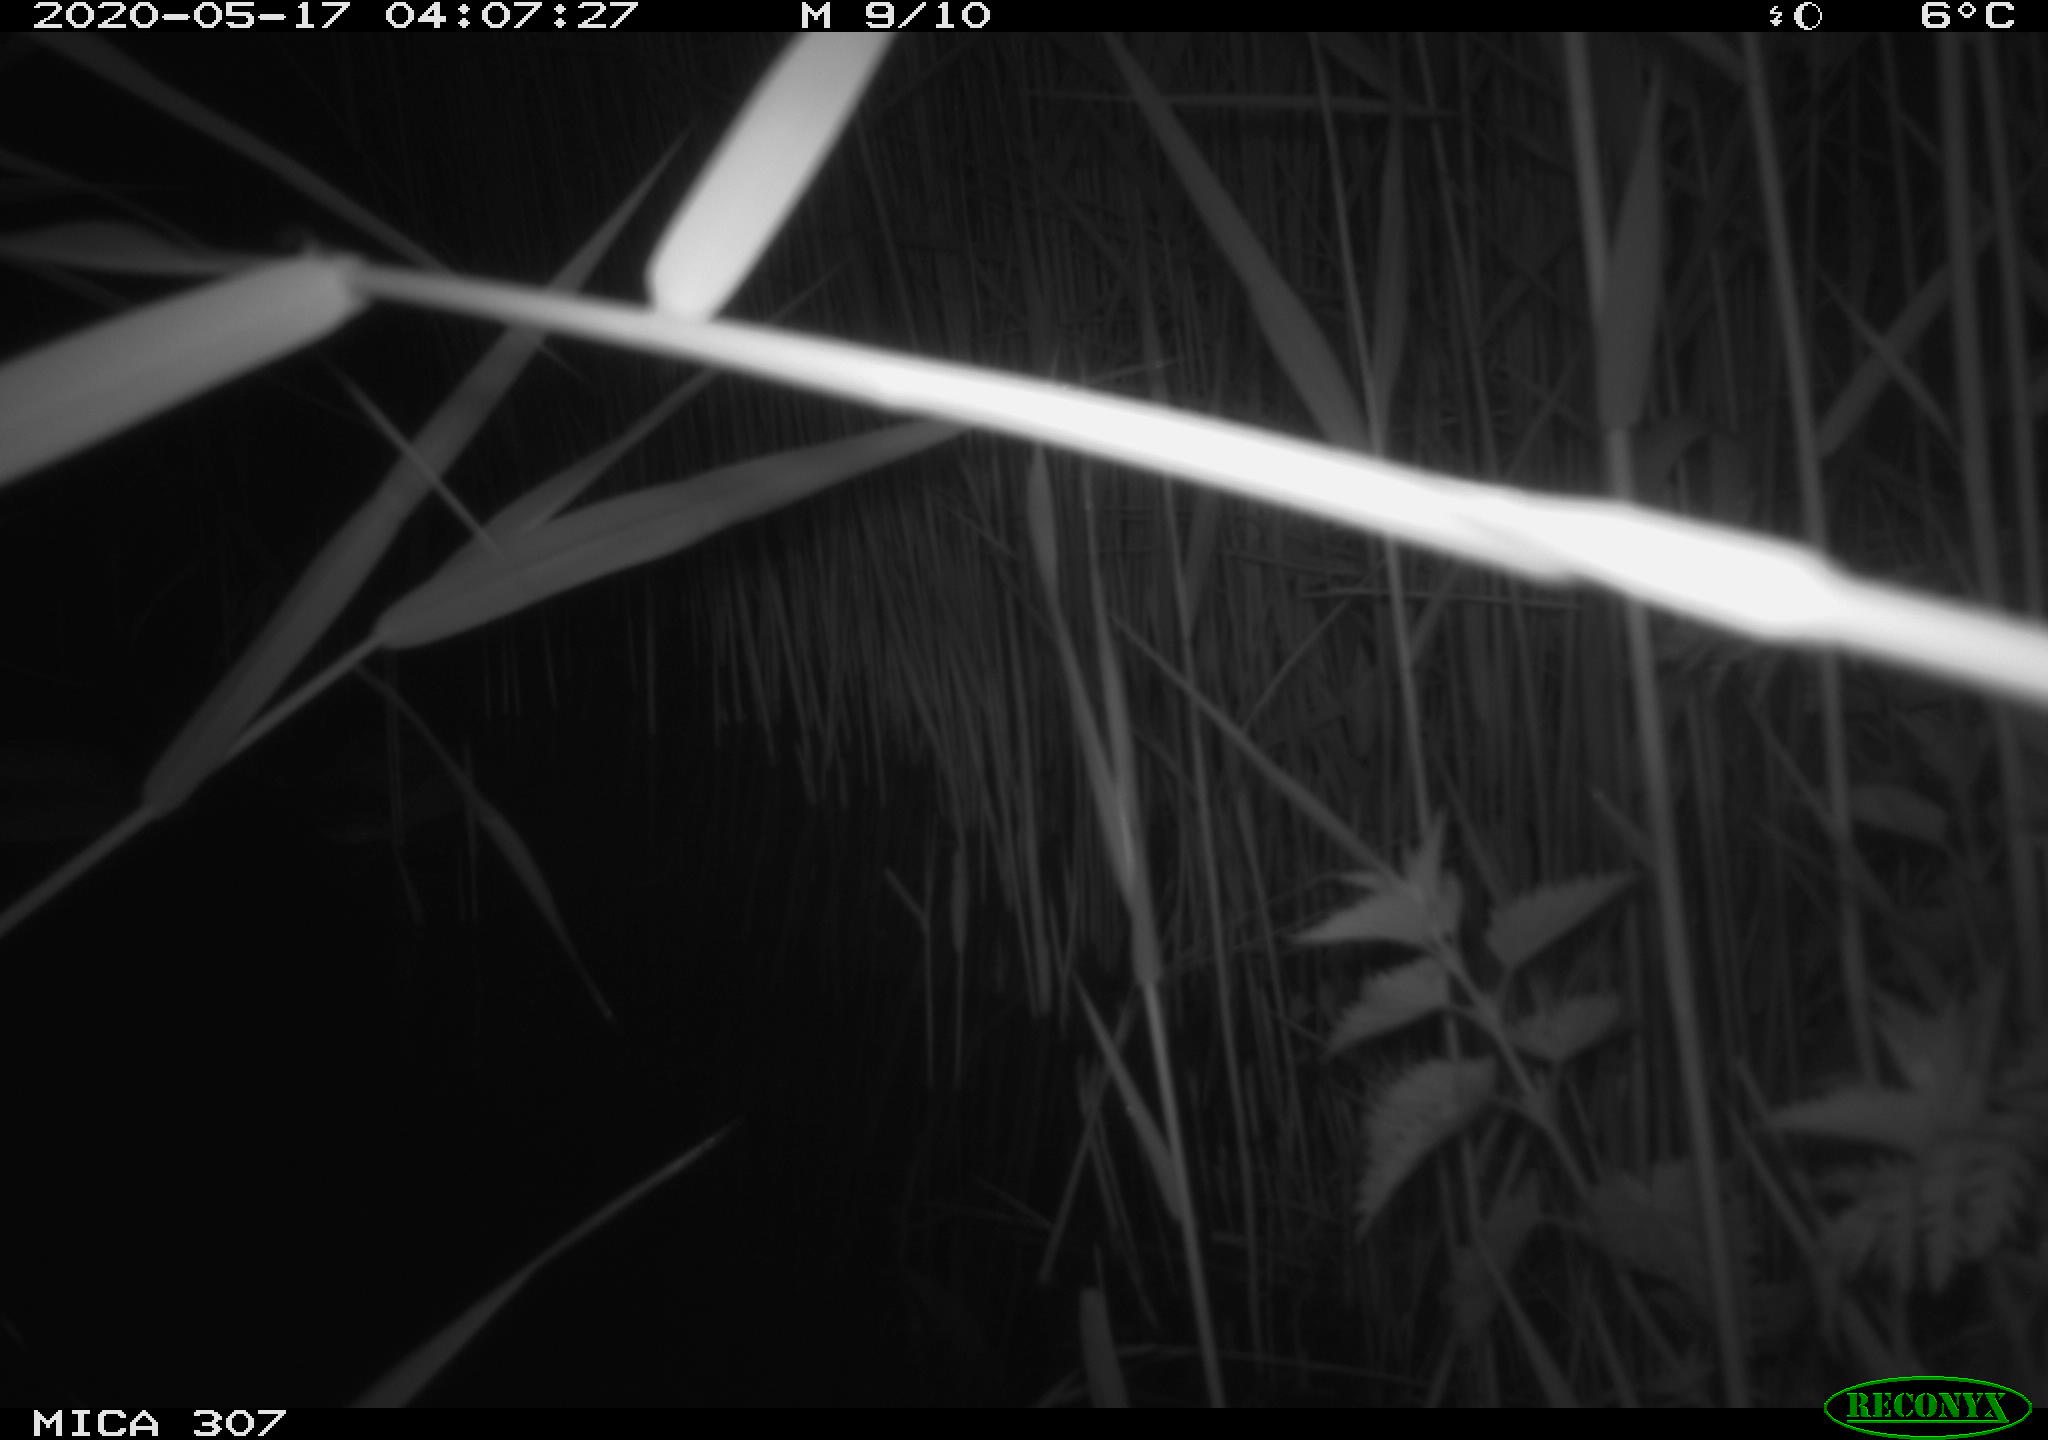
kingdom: Animalia
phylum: Chordata
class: Aves
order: Anseriformes
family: Anatidae
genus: Anas
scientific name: Anas platyrhynchos
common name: Mallard
